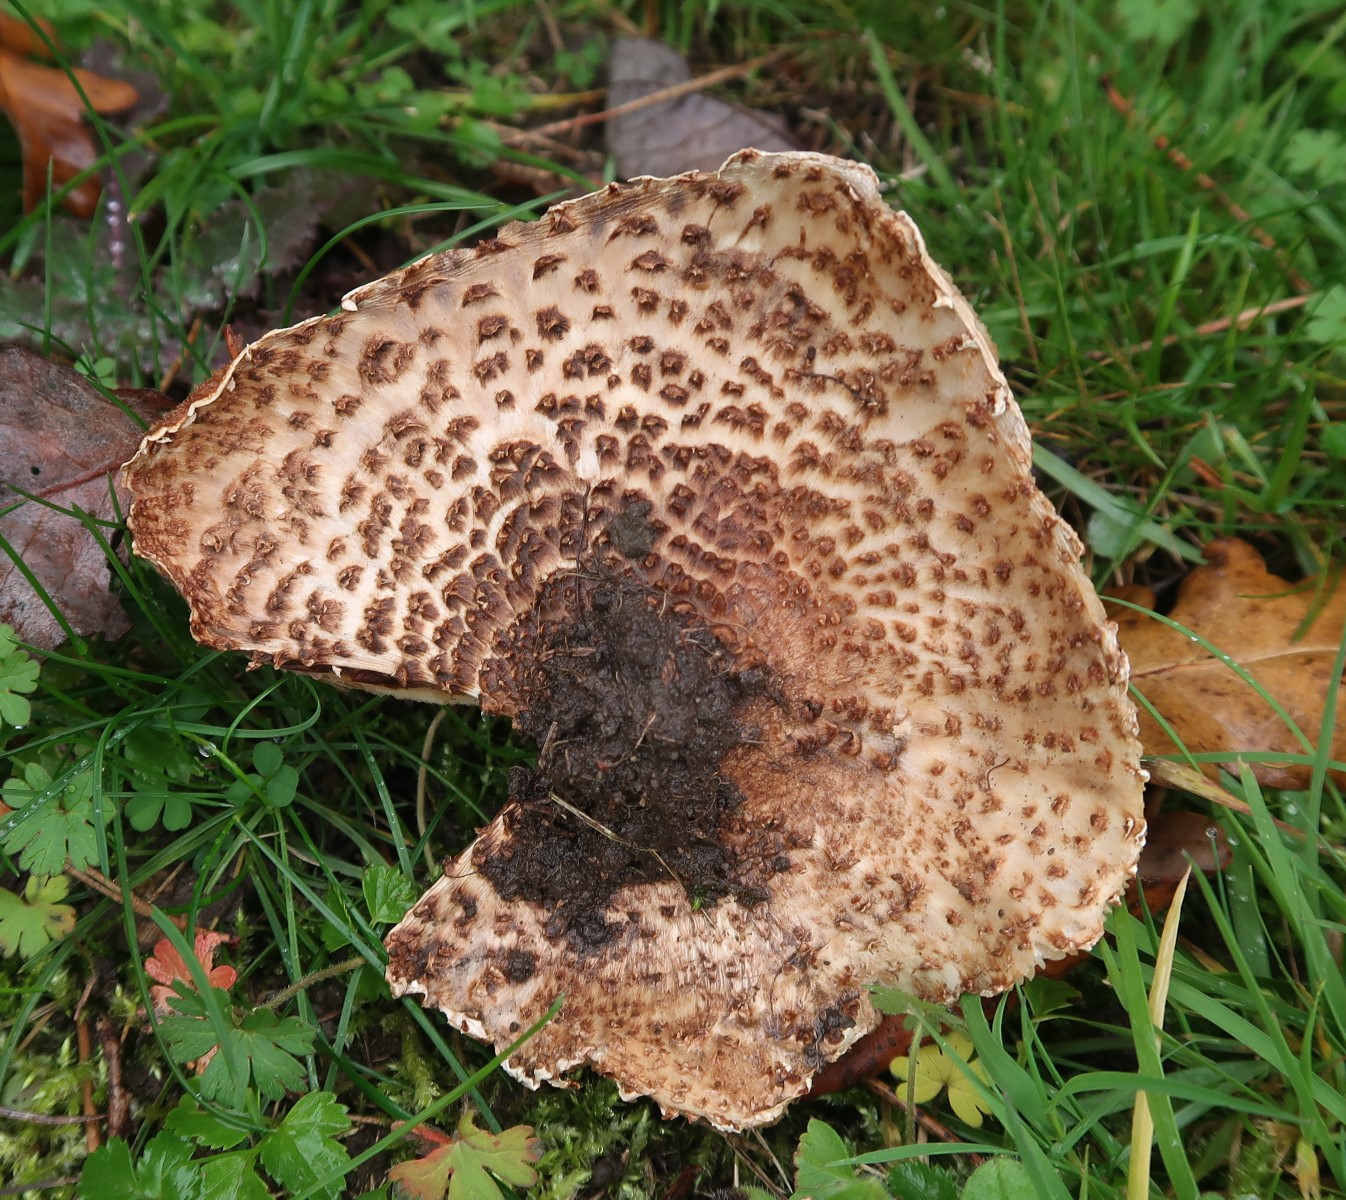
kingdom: Fungi
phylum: Basidiomycota
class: Agaricomycetes
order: Agaricales
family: Agaricaceae
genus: Echinoderma
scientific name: Echinoderma asperum
